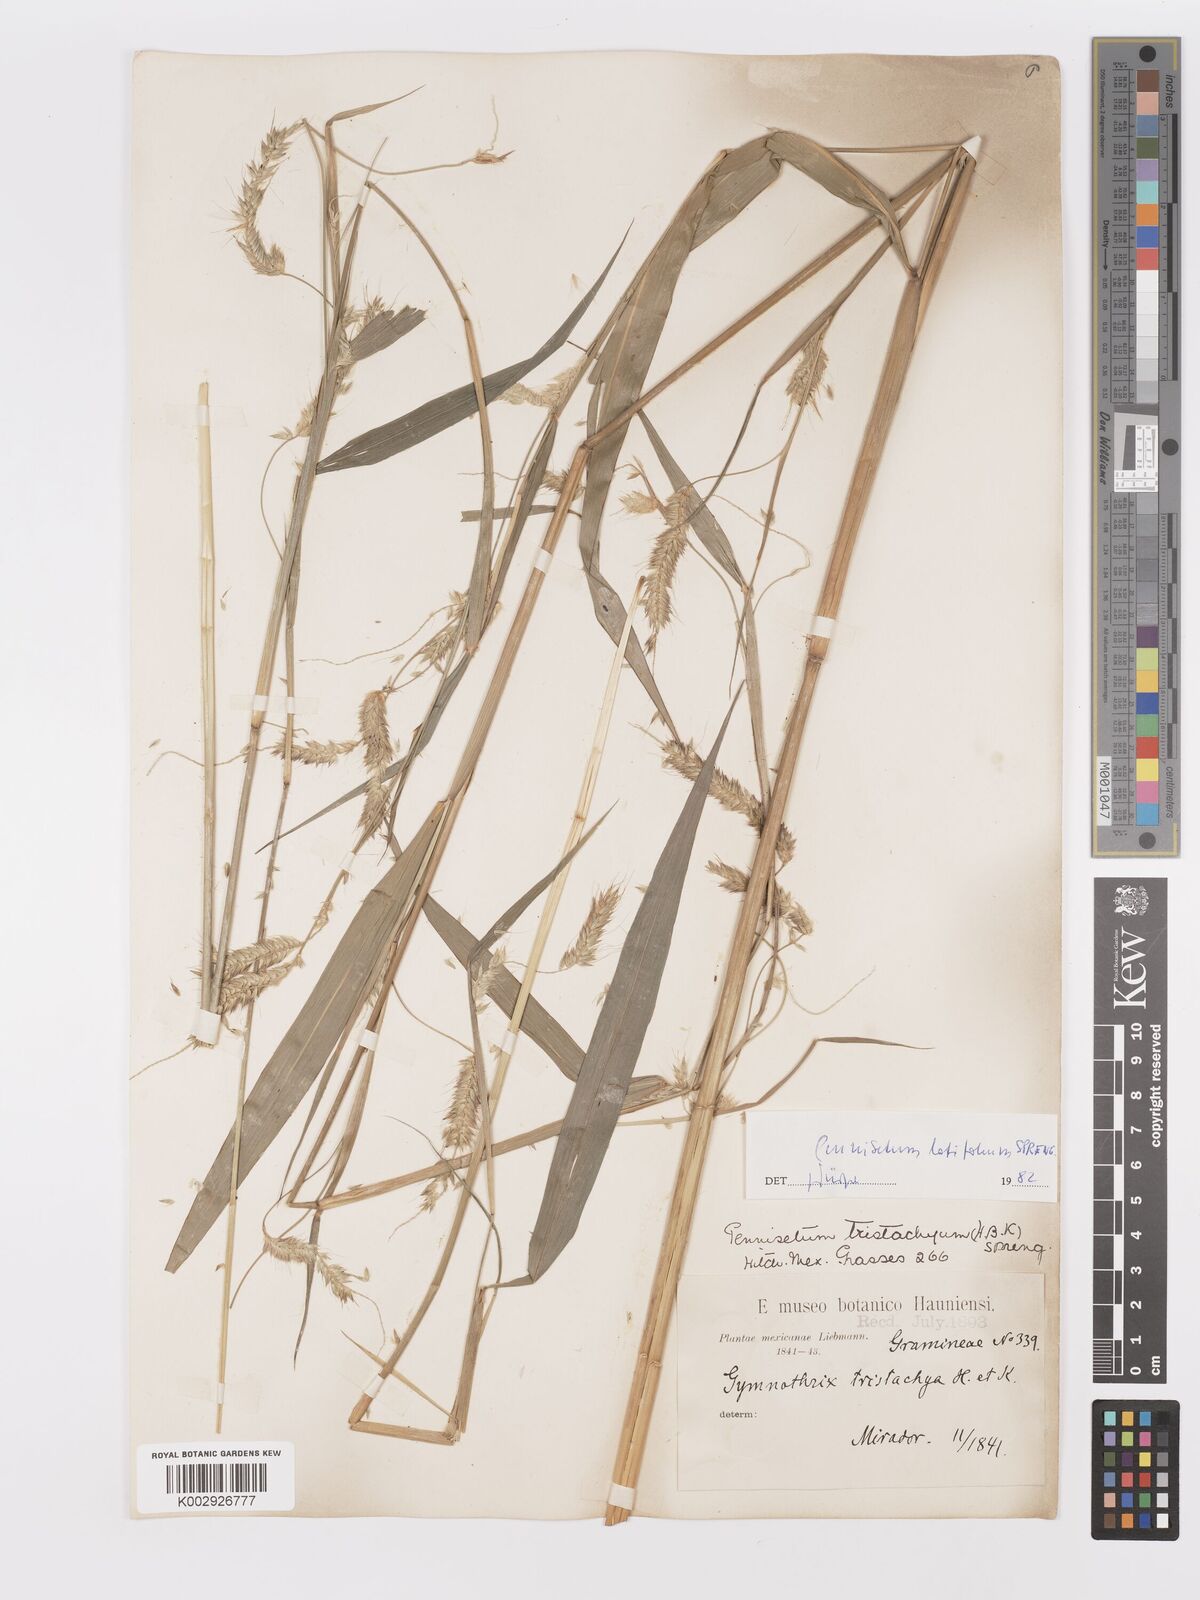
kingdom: Plantae
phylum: Tracheophyta
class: Liliopsida
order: Poales
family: Poaceae
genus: Cenchrus
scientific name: Cenchrus latifolius
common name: Sandbur
